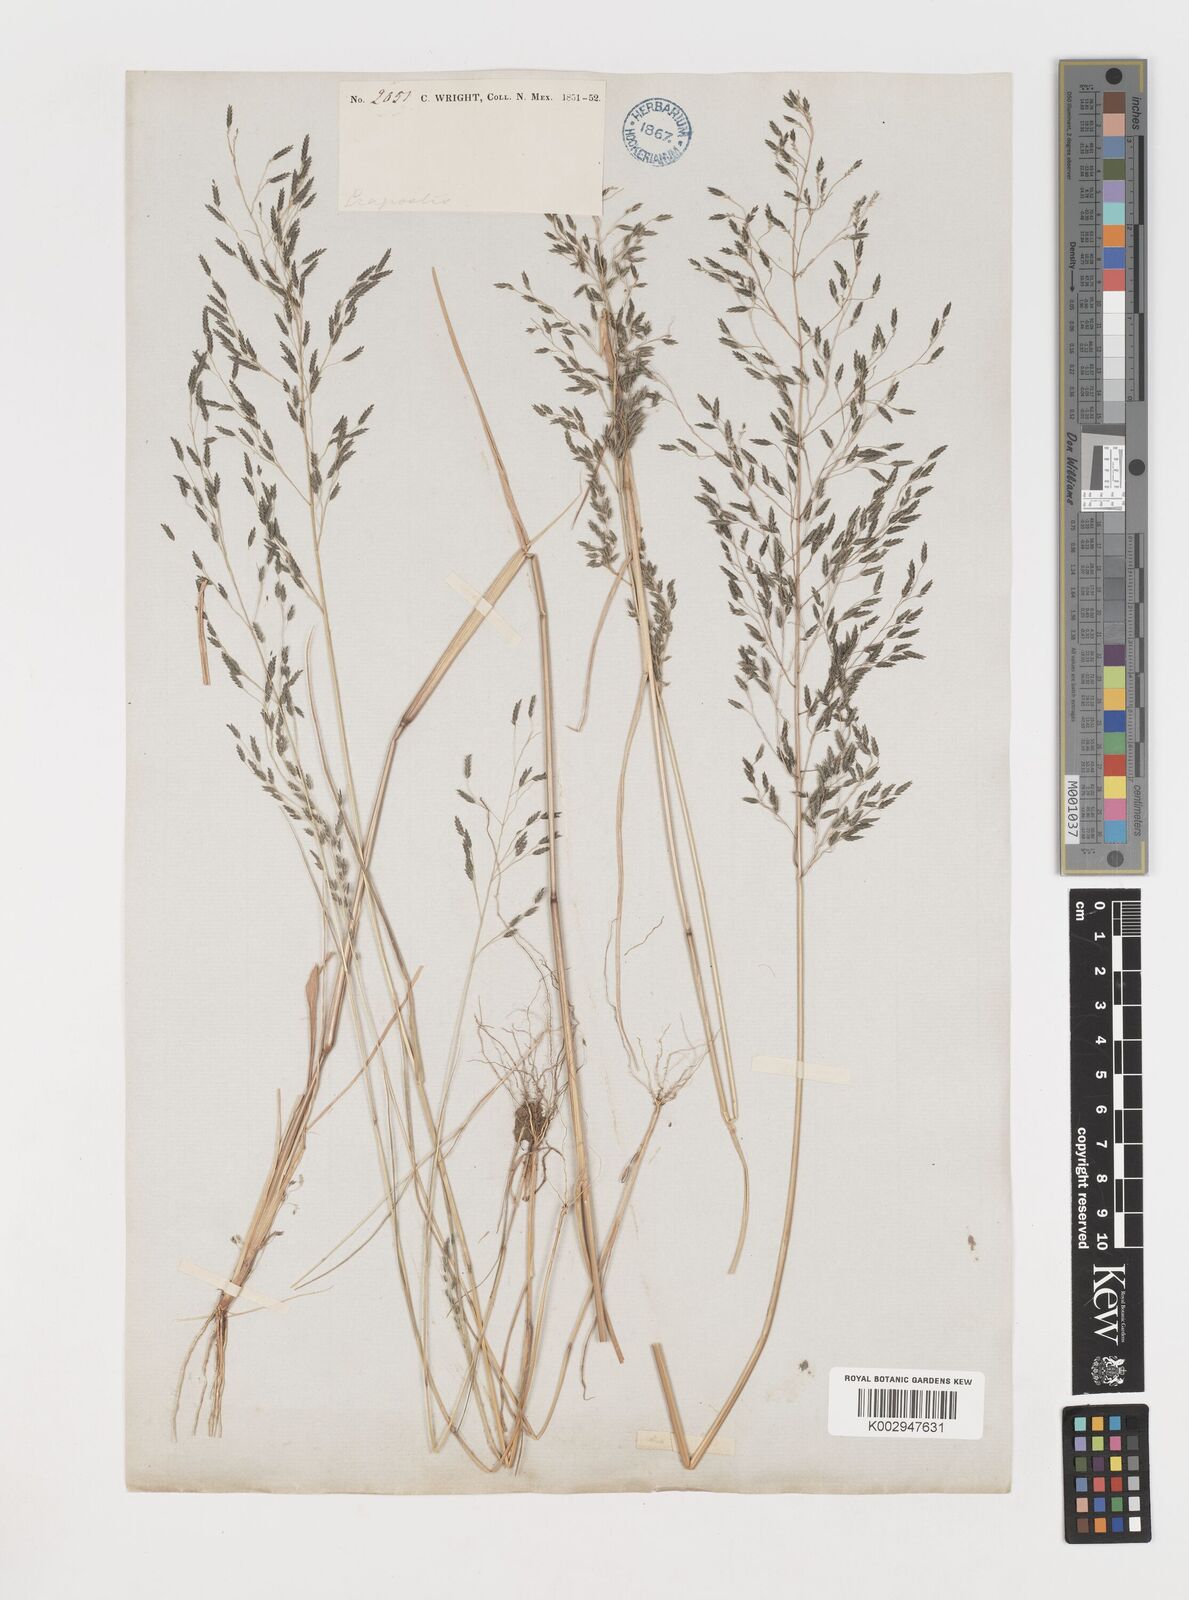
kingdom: Plantae
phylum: Tracheophyta
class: Liliopsida
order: Poales
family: Poaceae
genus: Eragrostis
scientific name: Eragrostis mexicana
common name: Mexican love grass
